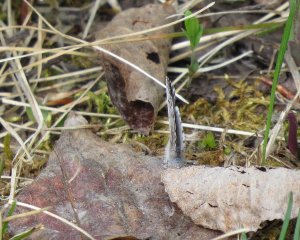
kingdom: Animalia
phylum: Arthropoda
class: Insecta
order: Lepidoptera
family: Lycaenidae
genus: Celastrina
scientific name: Celastrina lucia
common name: Northern Spring Azure
